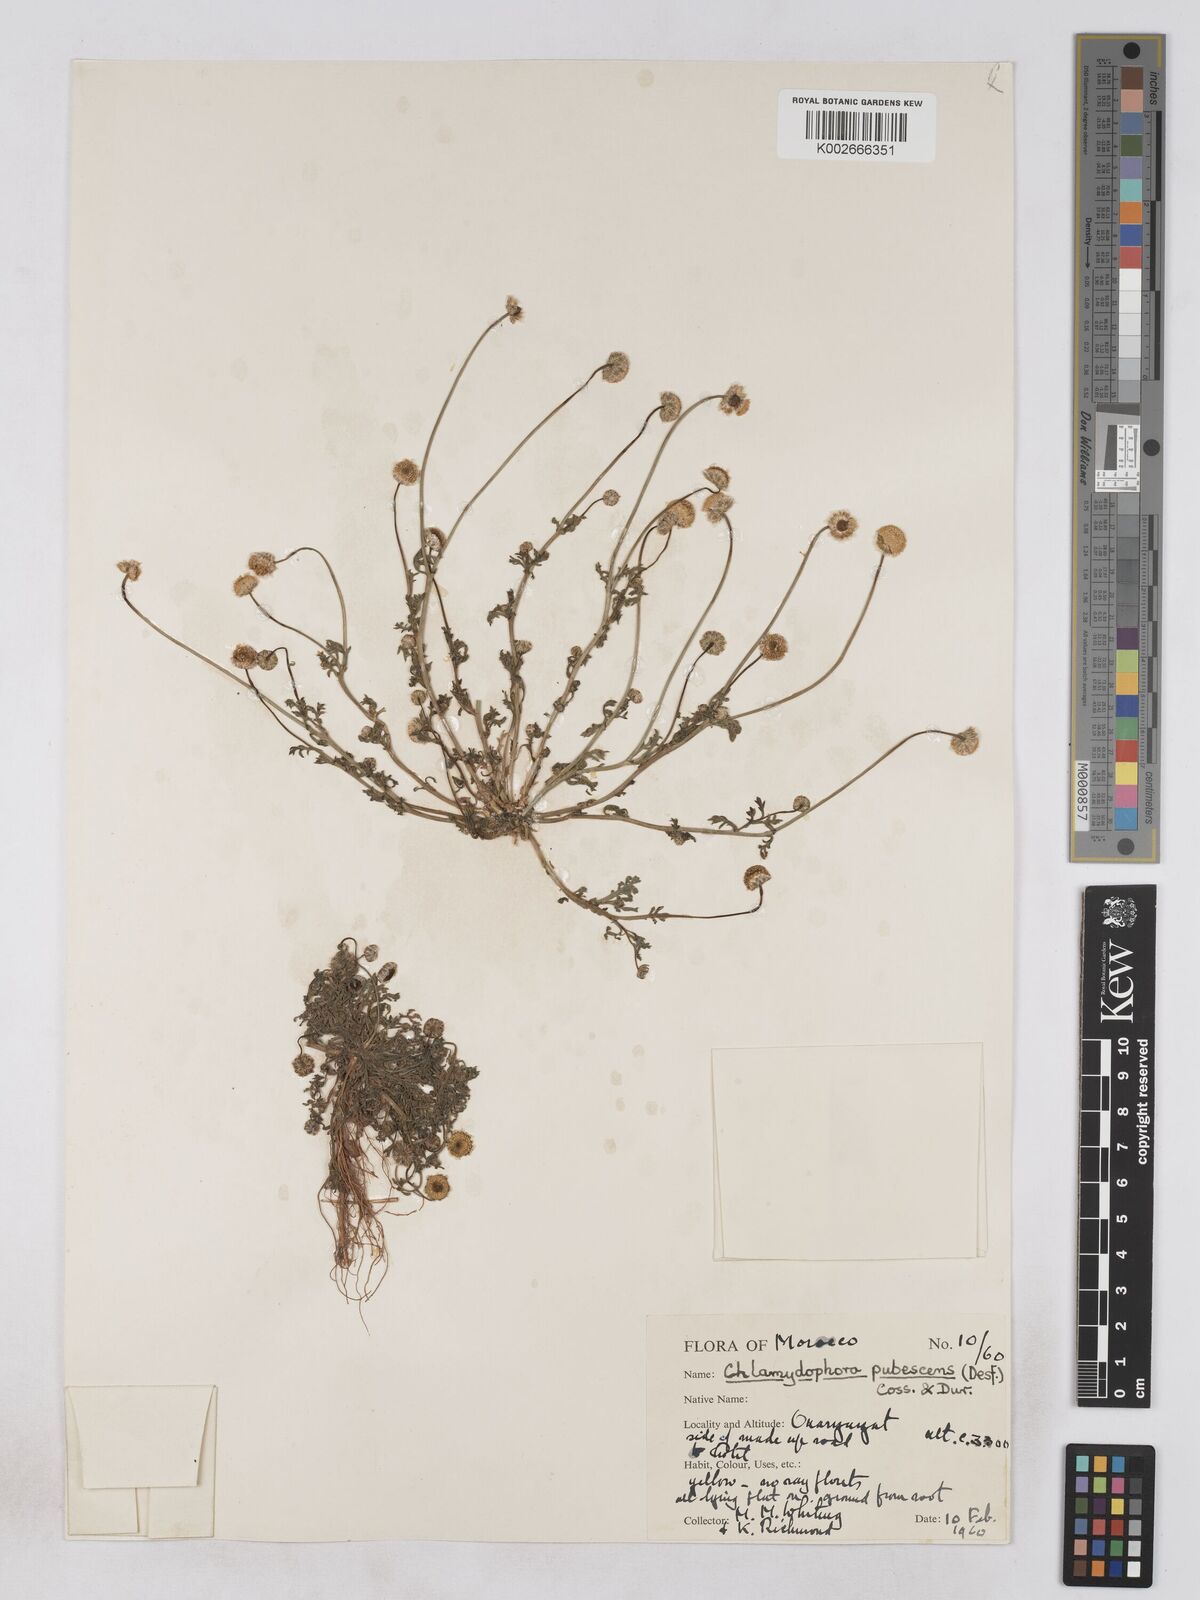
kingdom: Plantae
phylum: Tracheophyta
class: Magnoliopsida
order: Asterales
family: Asteraceae
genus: Otoglyphis
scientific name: Otoglyphis pubescens
